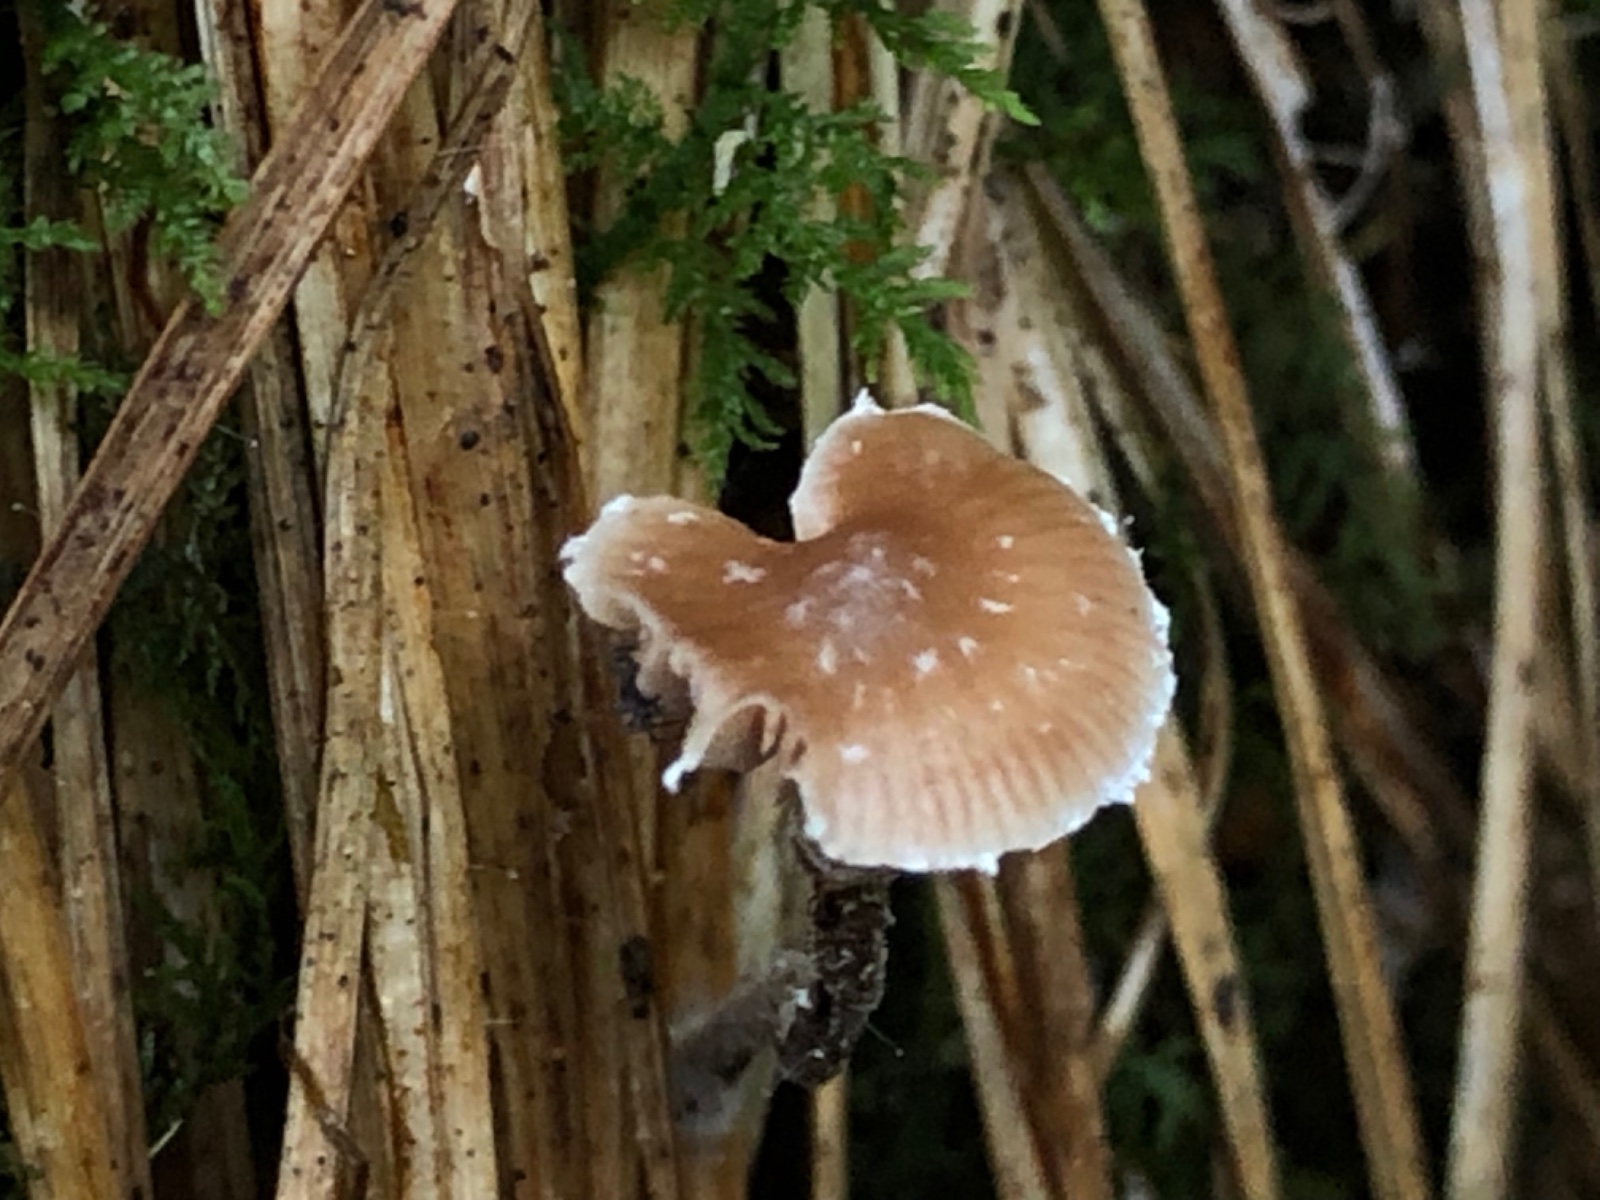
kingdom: Fungi
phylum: Basidiomycota
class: Agaricomycetes
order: Agaricales
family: Strophariaceae
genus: Deconica
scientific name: Deconica
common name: stråhat
